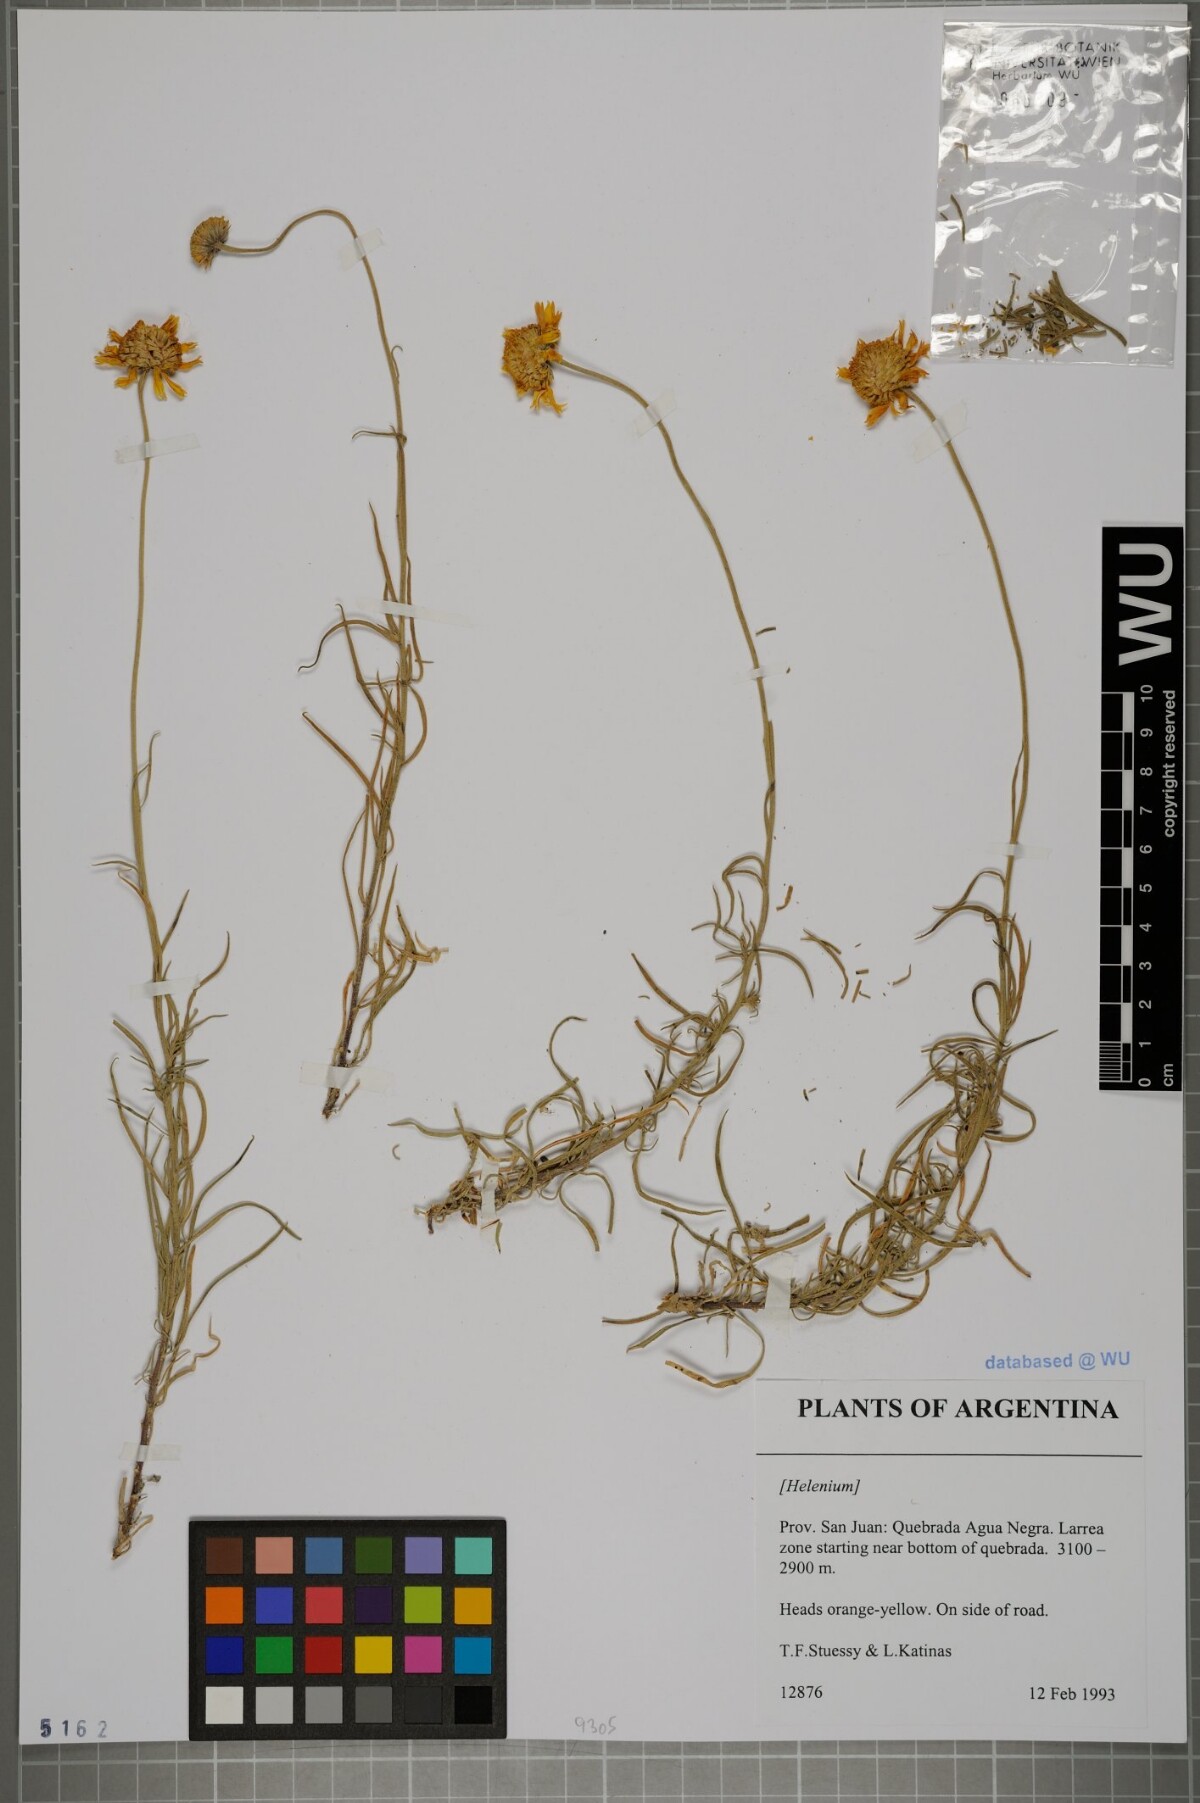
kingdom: Plantae
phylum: Tracheophyta
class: Magnoliopsida
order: Asterales
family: Asteraceae
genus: Helenium
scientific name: Helenium
